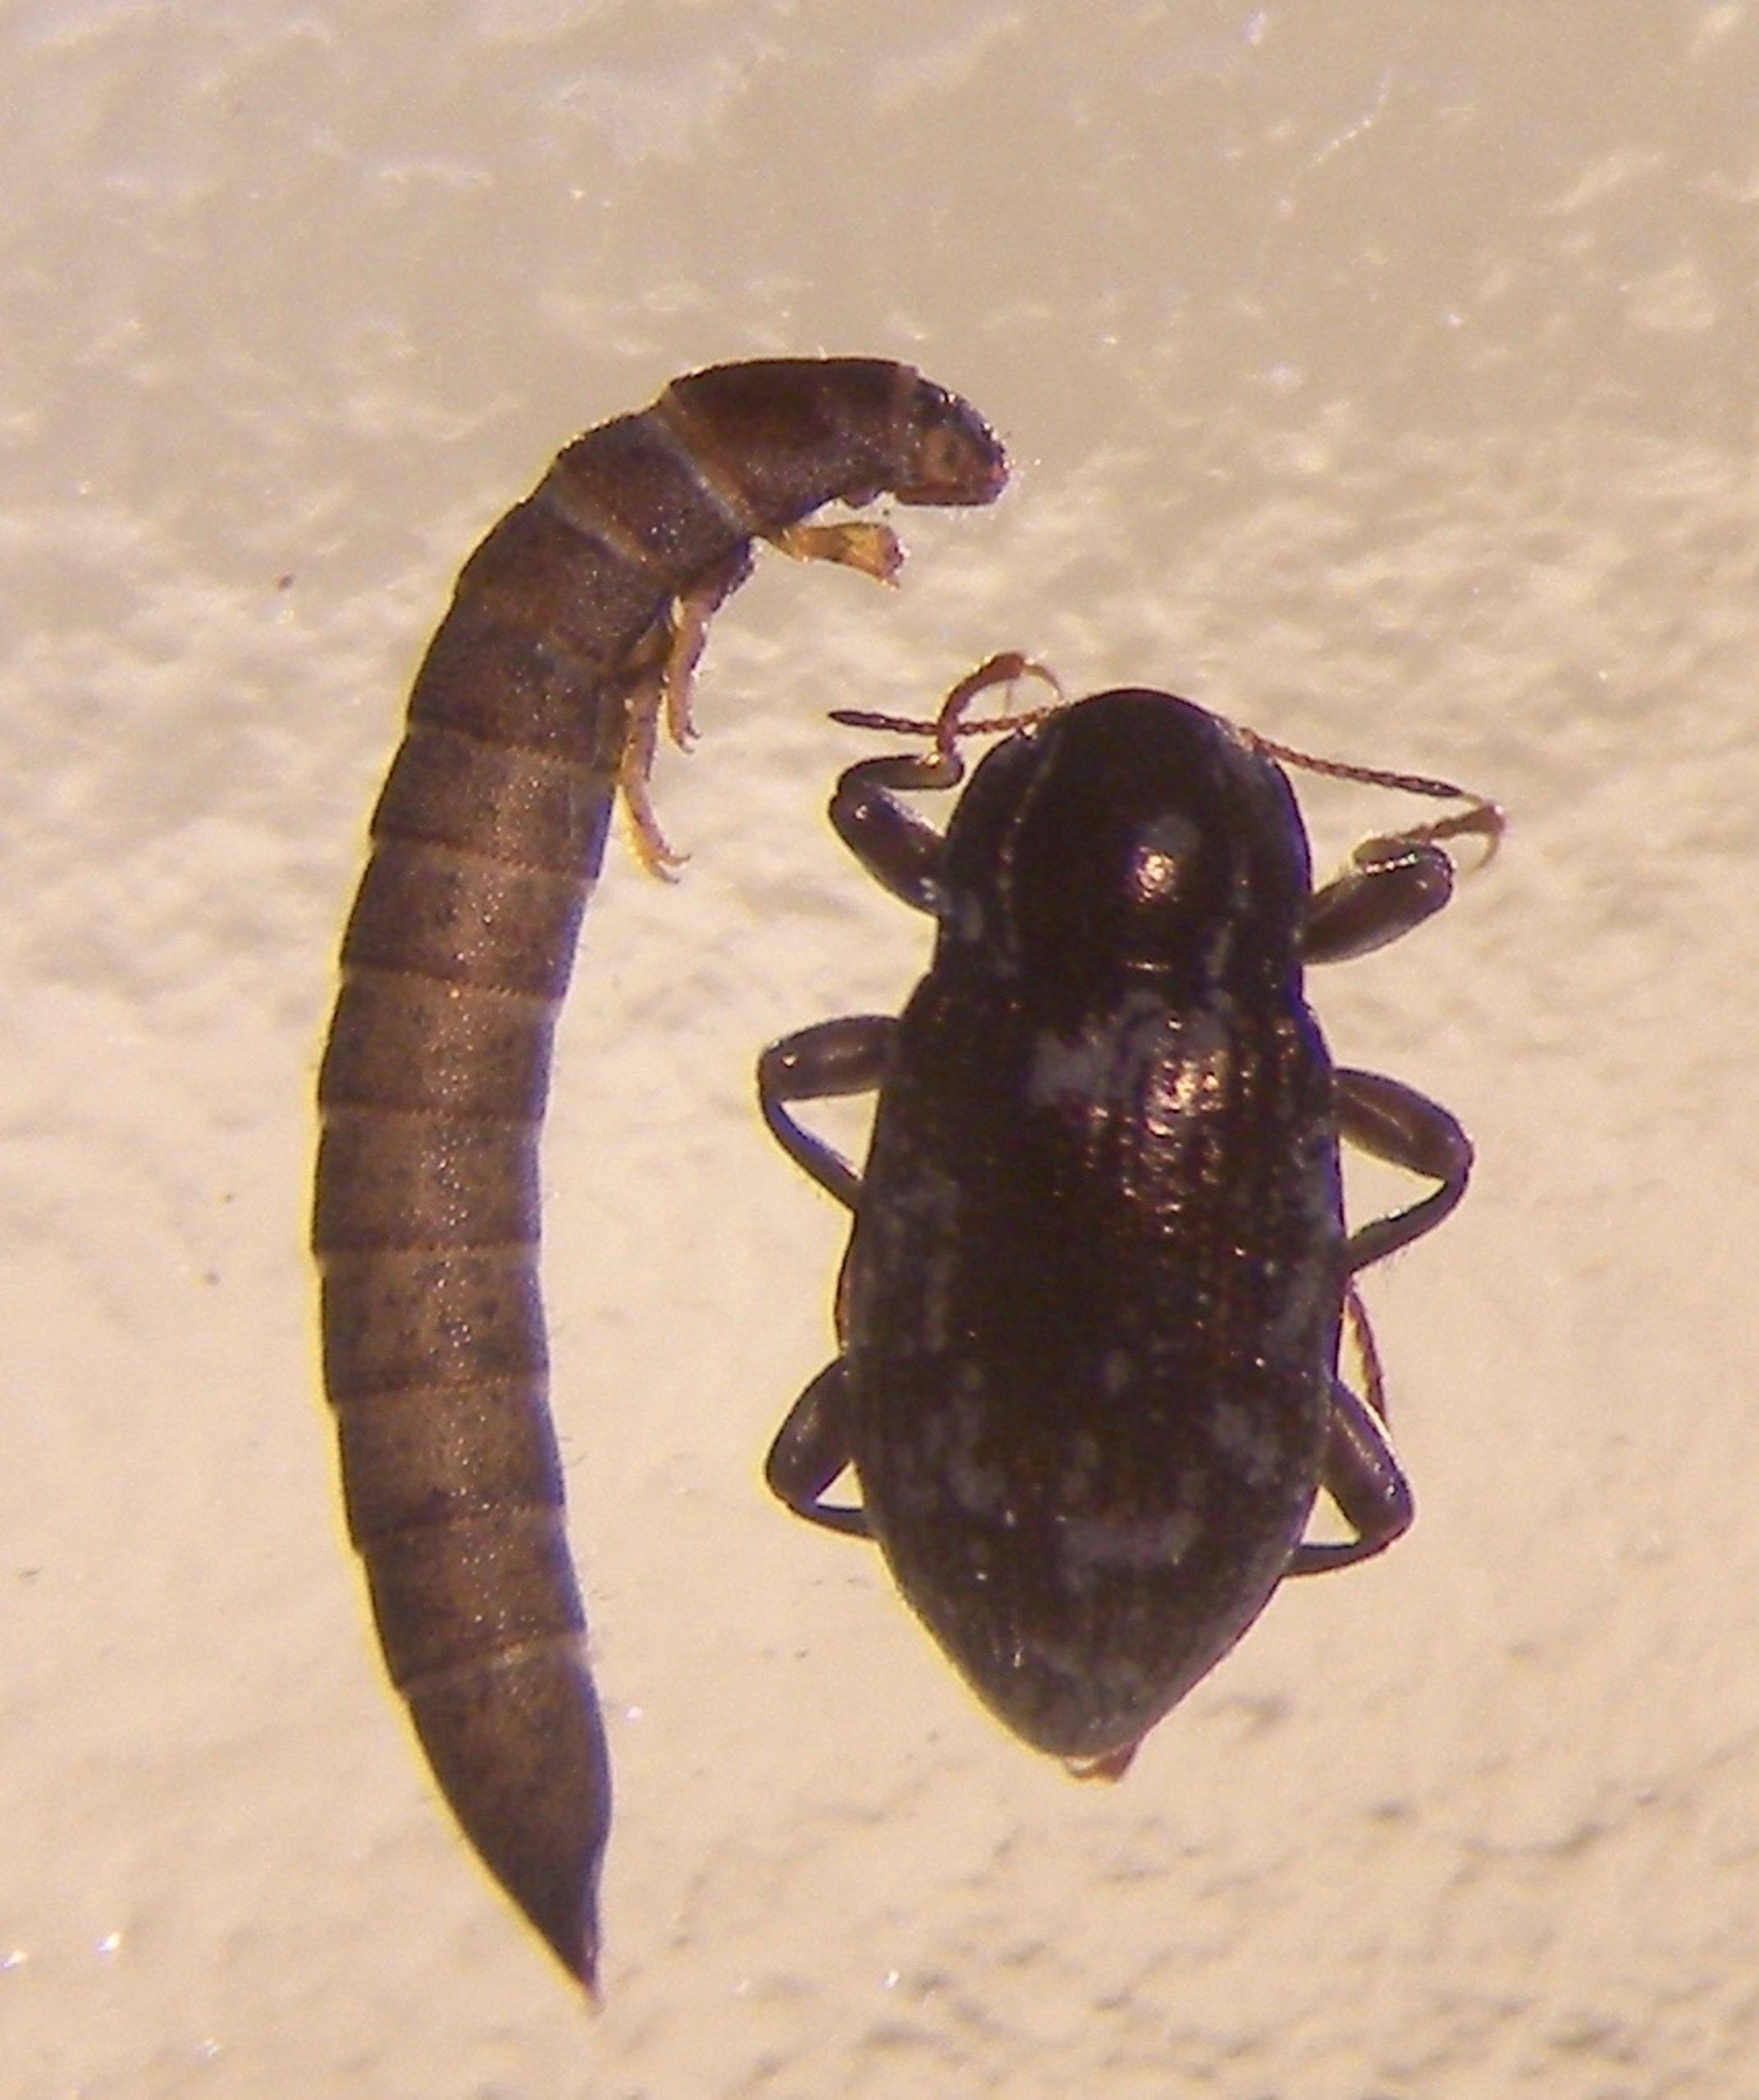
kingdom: Animalia
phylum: Arthropoda
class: Insecta
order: Coleoptera
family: Elmidae
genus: Limnius
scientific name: Limnius volckmari
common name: Stor klobille
